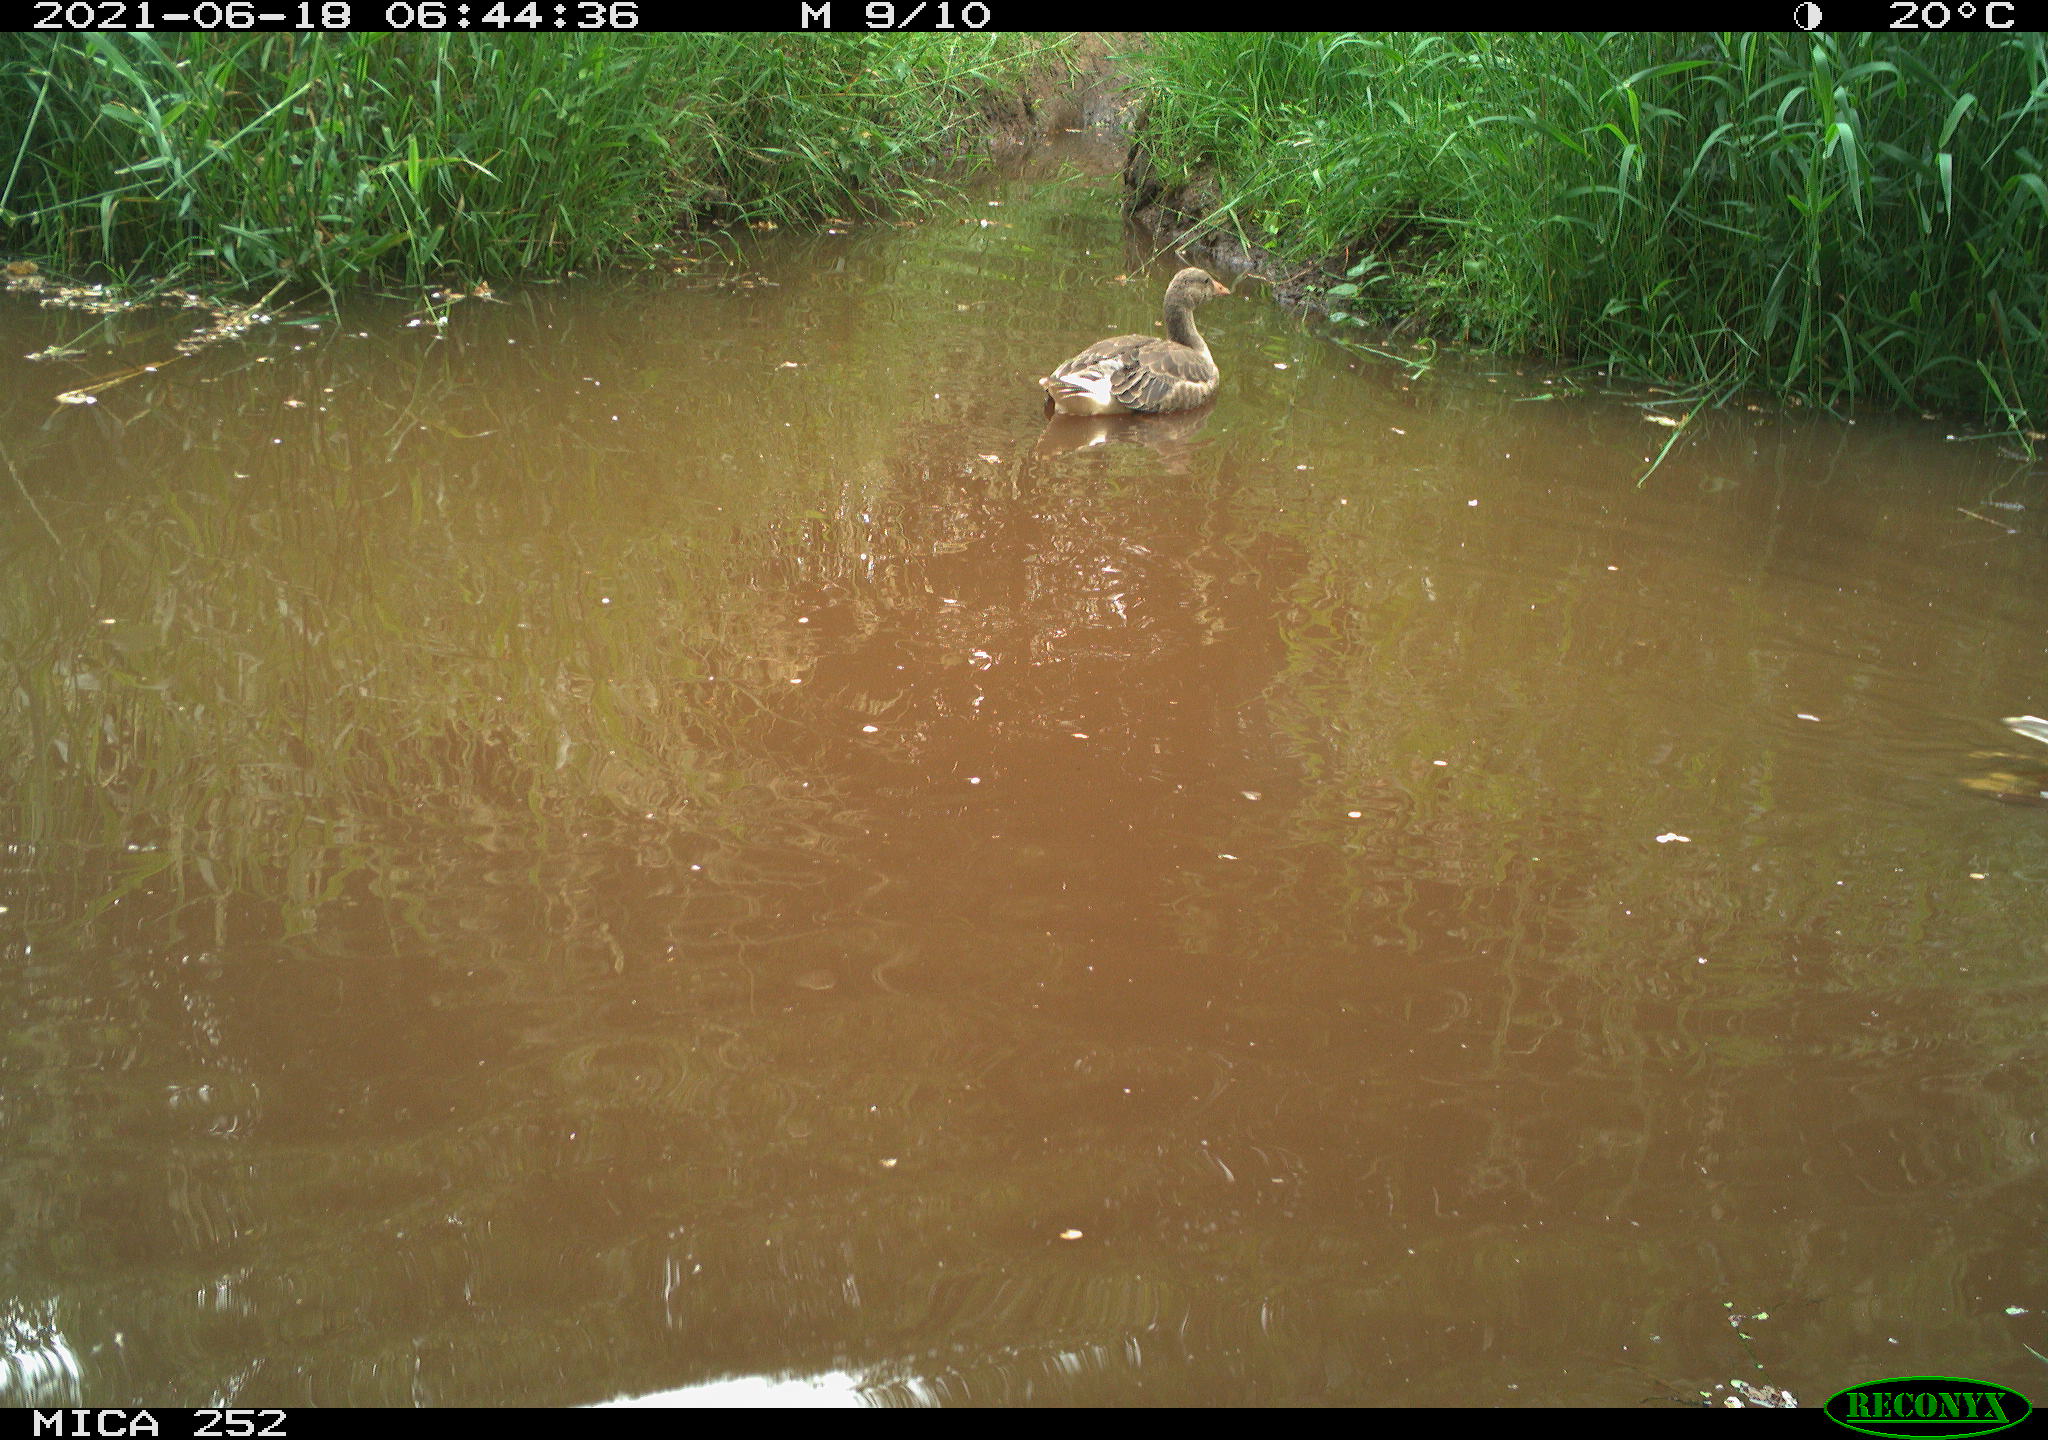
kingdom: Animalia
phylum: Chordata
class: Aves
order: Anseriformes
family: Anatidae
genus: Anser
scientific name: Anser anser
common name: Greylag goose
